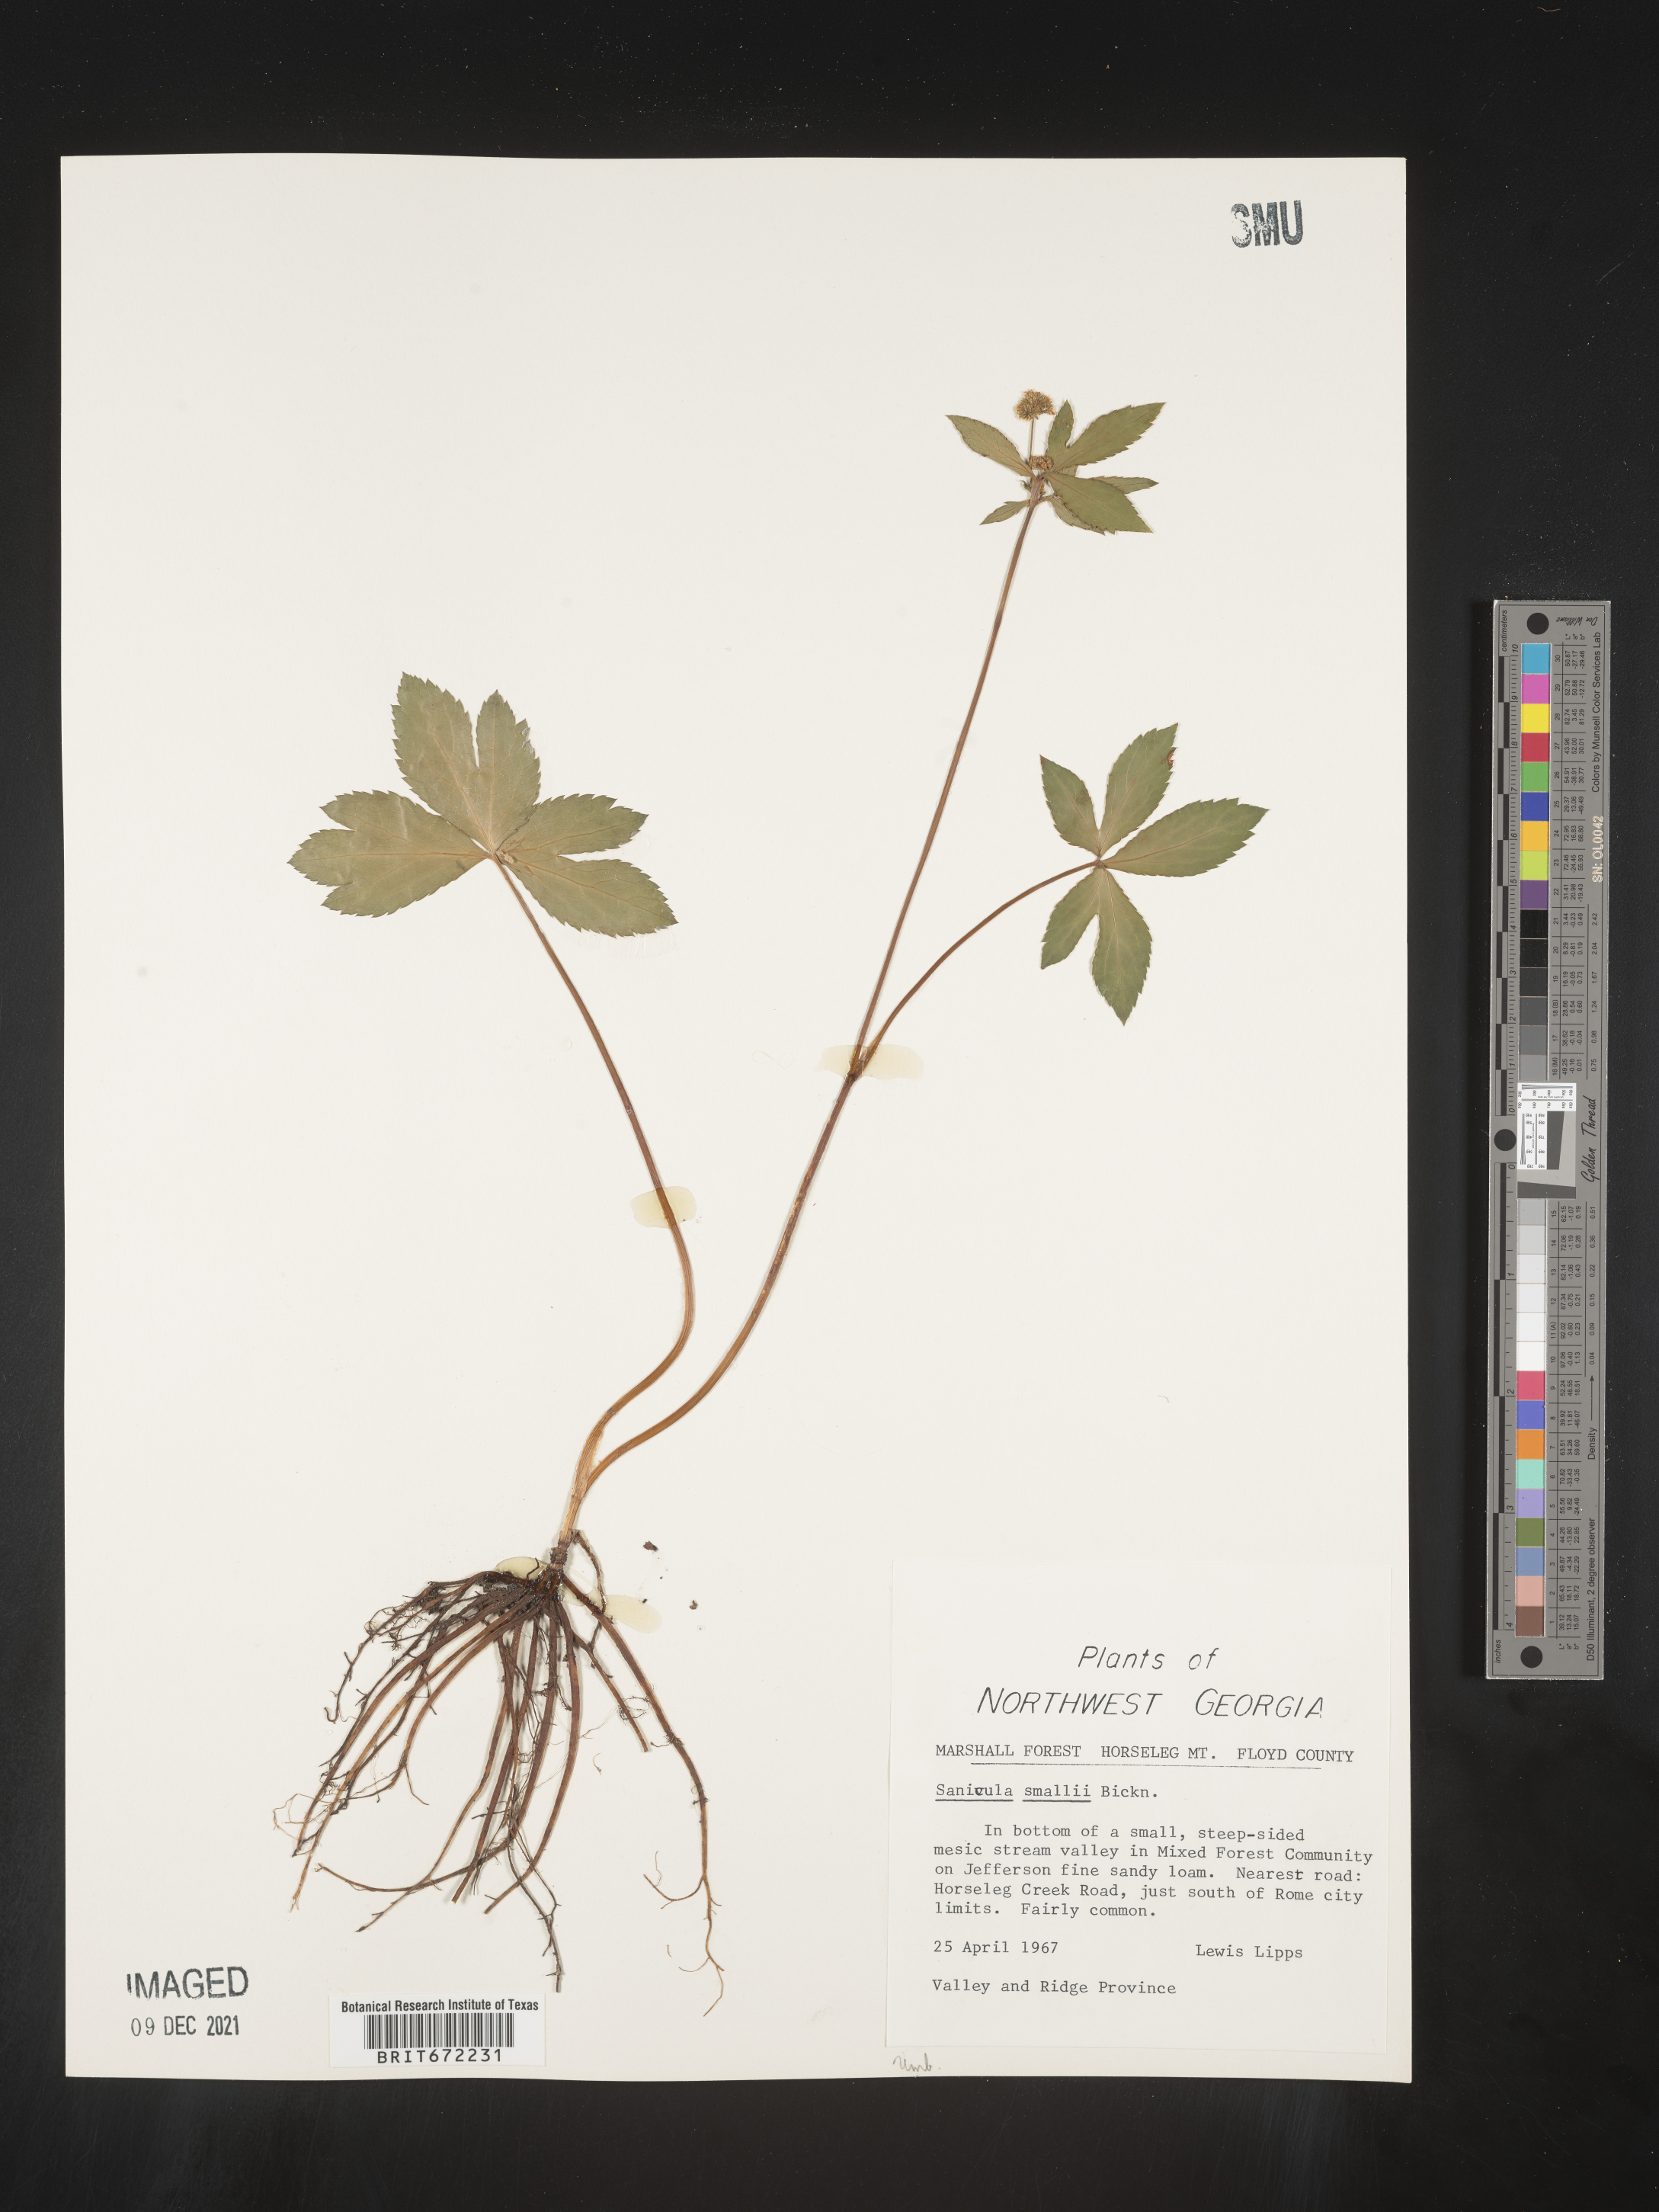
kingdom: Plantae
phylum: Tracheophyta
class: Magnoliopsida
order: Apiales
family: Apiaceae
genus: Sanicula
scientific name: Sanicula
